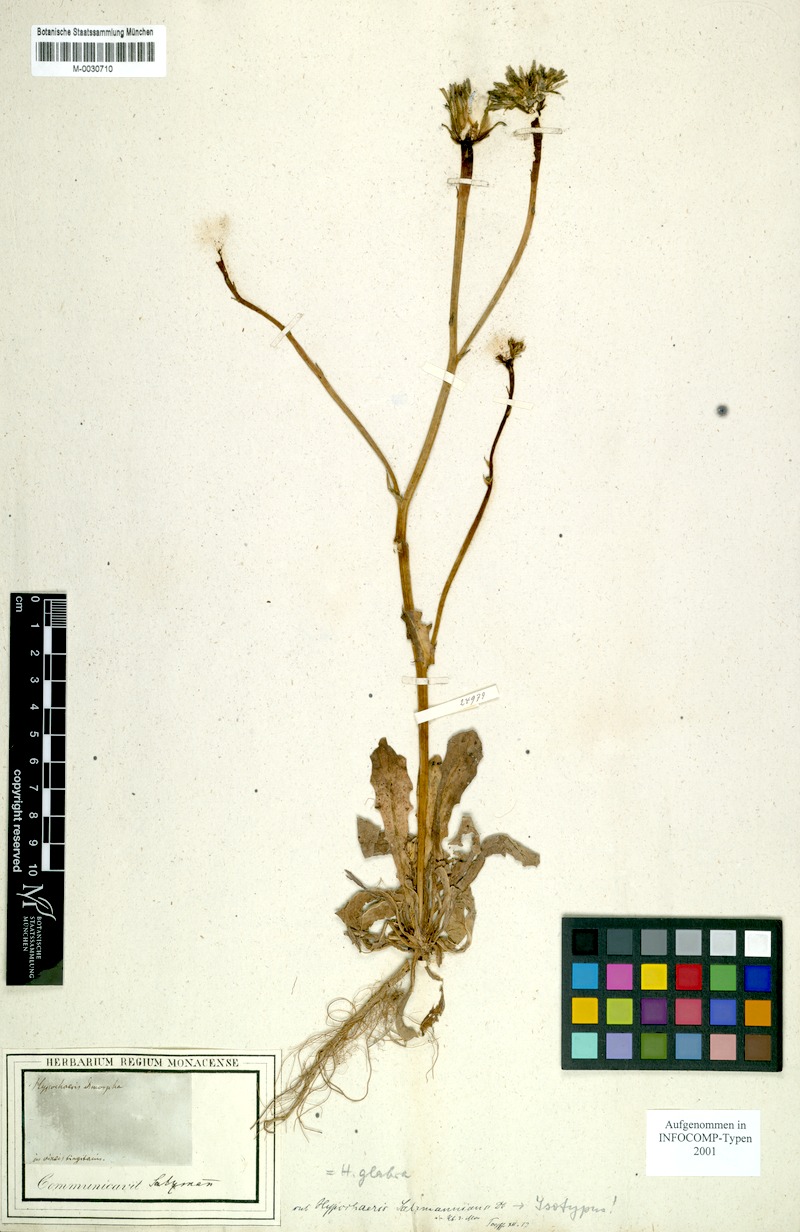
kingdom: Plantae
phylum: Tracheophyta
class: Magnoliopsida
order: Asterales
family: Asteraceae
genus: Hypochaeris
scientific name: Hypochaeris salzmanniana
